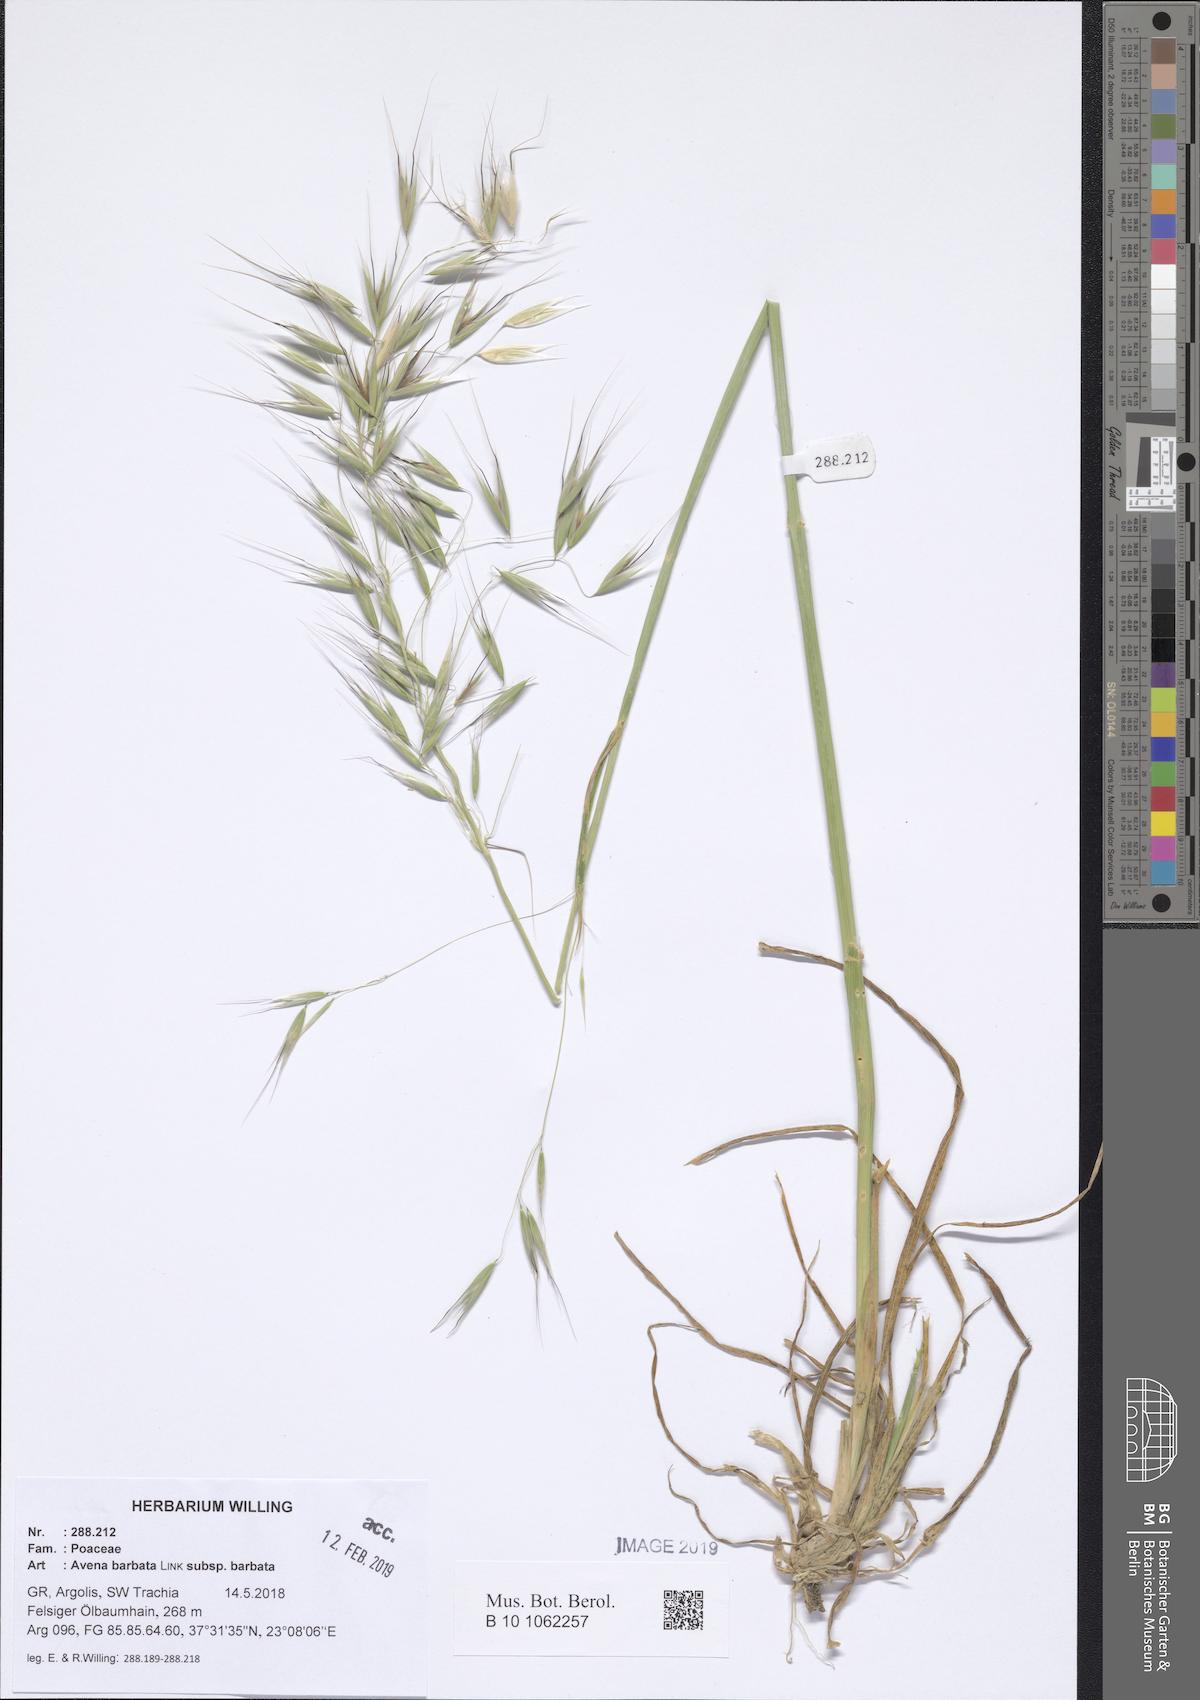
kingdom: Plantae
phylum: Tracheophyta
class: Liliopsida
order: Poales
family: Poaceae
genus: Avena
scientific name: Avena barbata
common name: Slender oat
